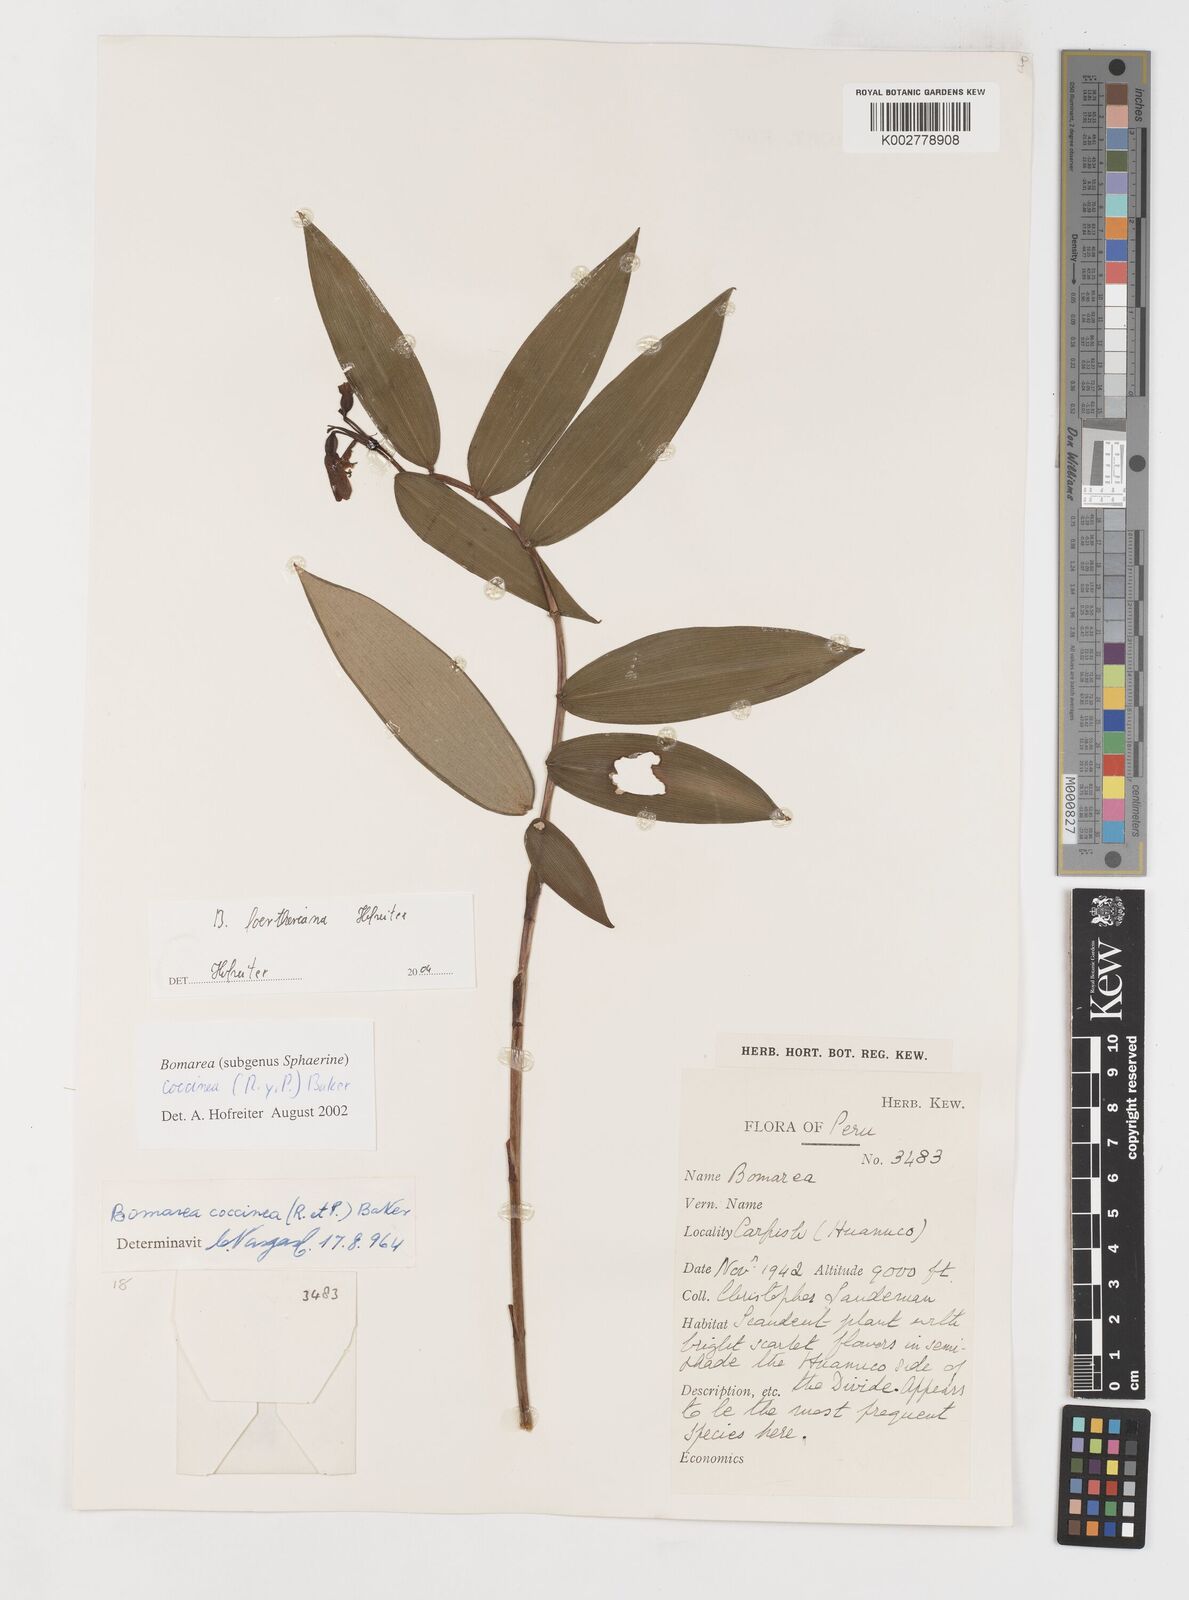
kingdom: Plantae
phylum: Tracheophyta
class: Liliopsida
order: Liliales
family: Alstroemeriaceae
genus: Bomarea
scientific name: Bomarea foertheriana
